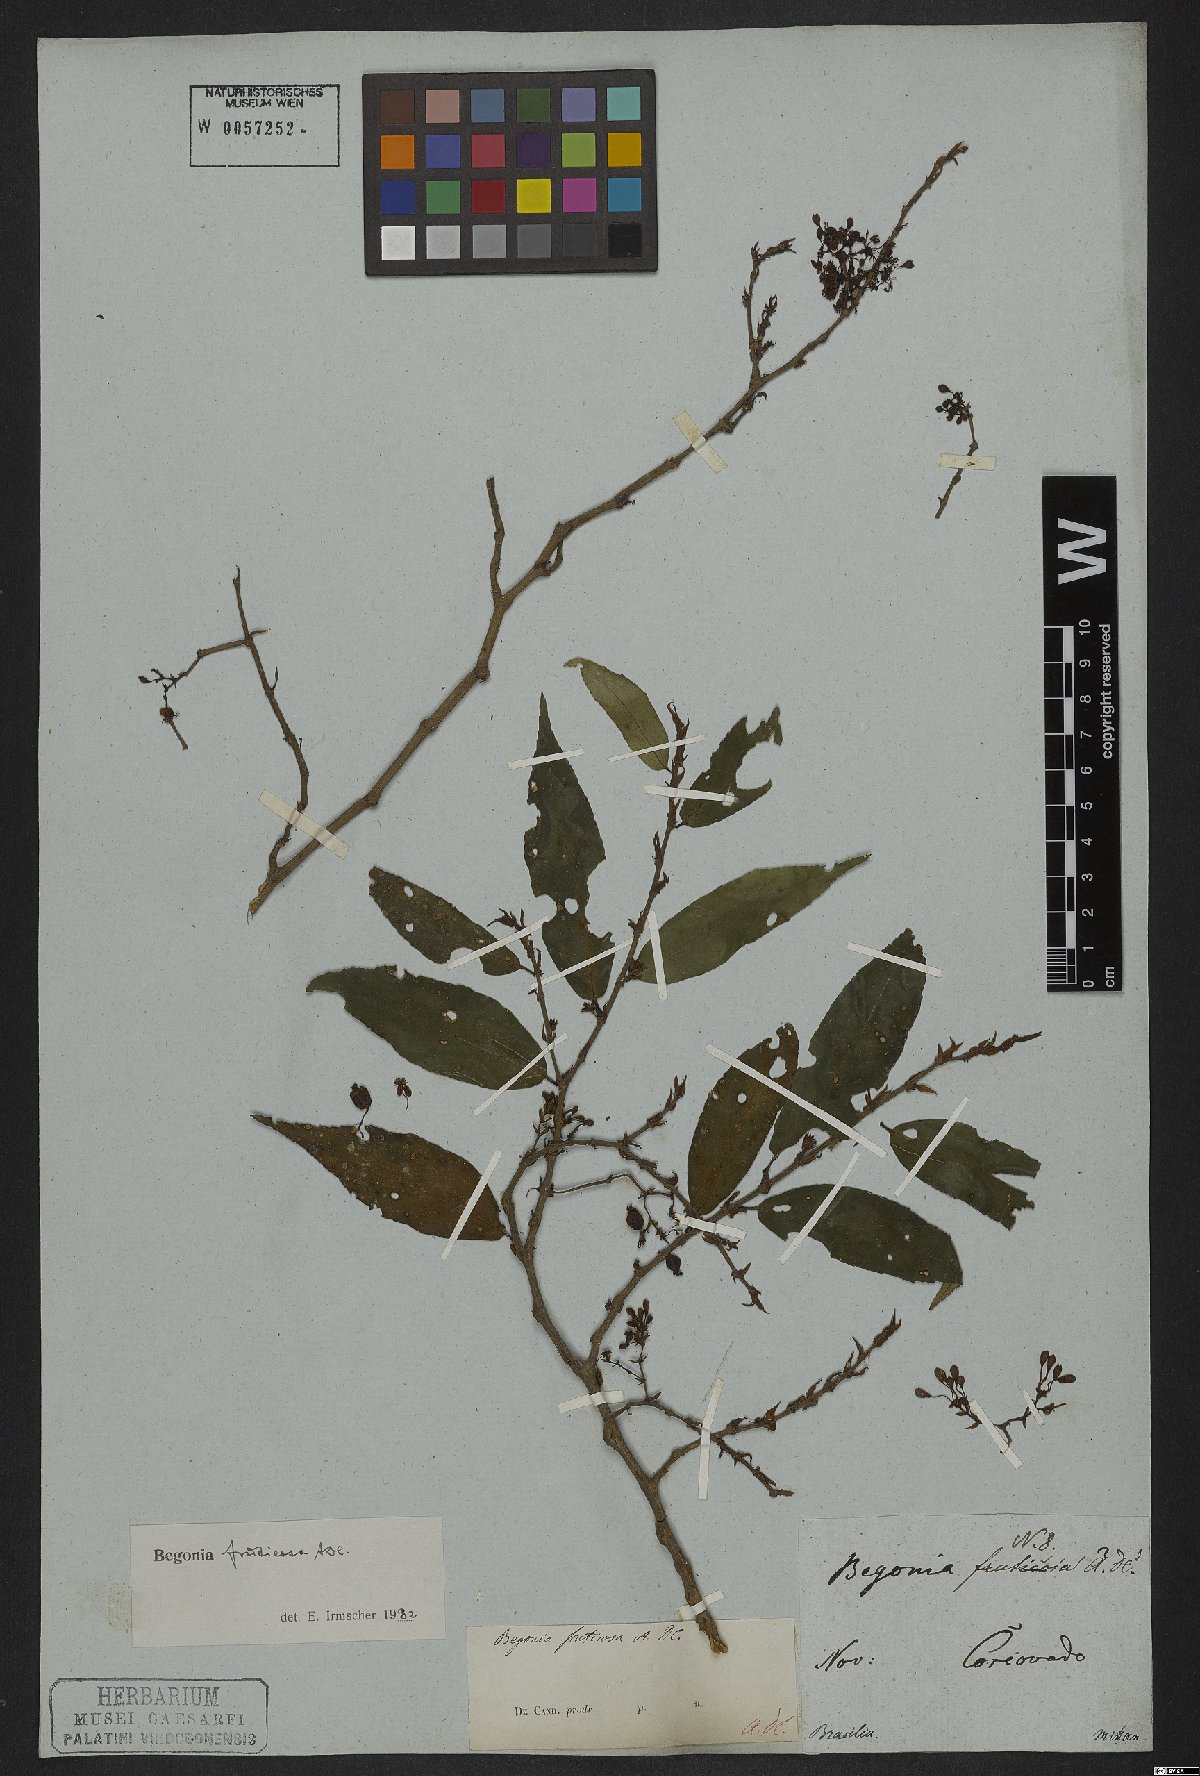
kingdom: Plantae
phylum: Tracheophyta
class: Magnoliopsida
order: Cucurbitales
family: Begoniaceae
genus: Begonia
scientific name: Begonia fruticosa
